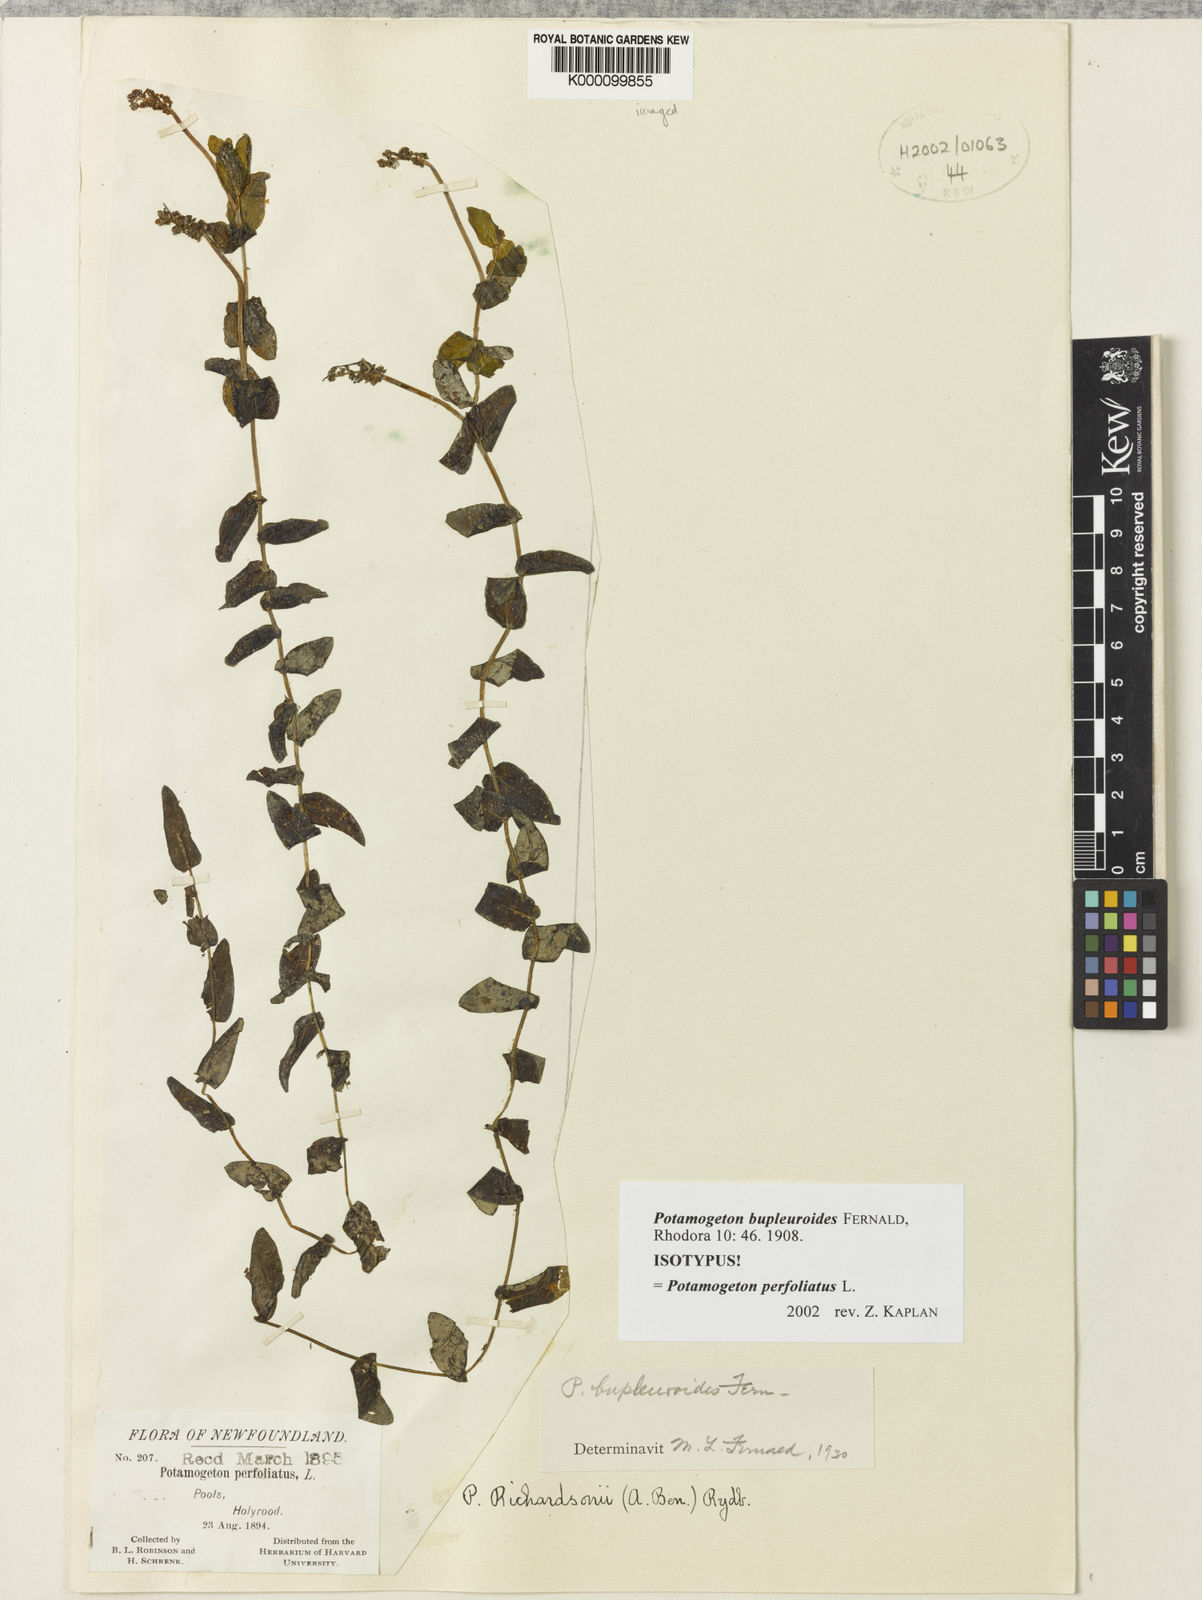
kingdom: Plantae
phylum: Tracheophyta
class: Liliopsida
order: Alismatales
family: Potamogetonaceae
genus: Potamogeton
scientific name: Potamogeton perfoliatus
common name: Perfoliate pondweed
